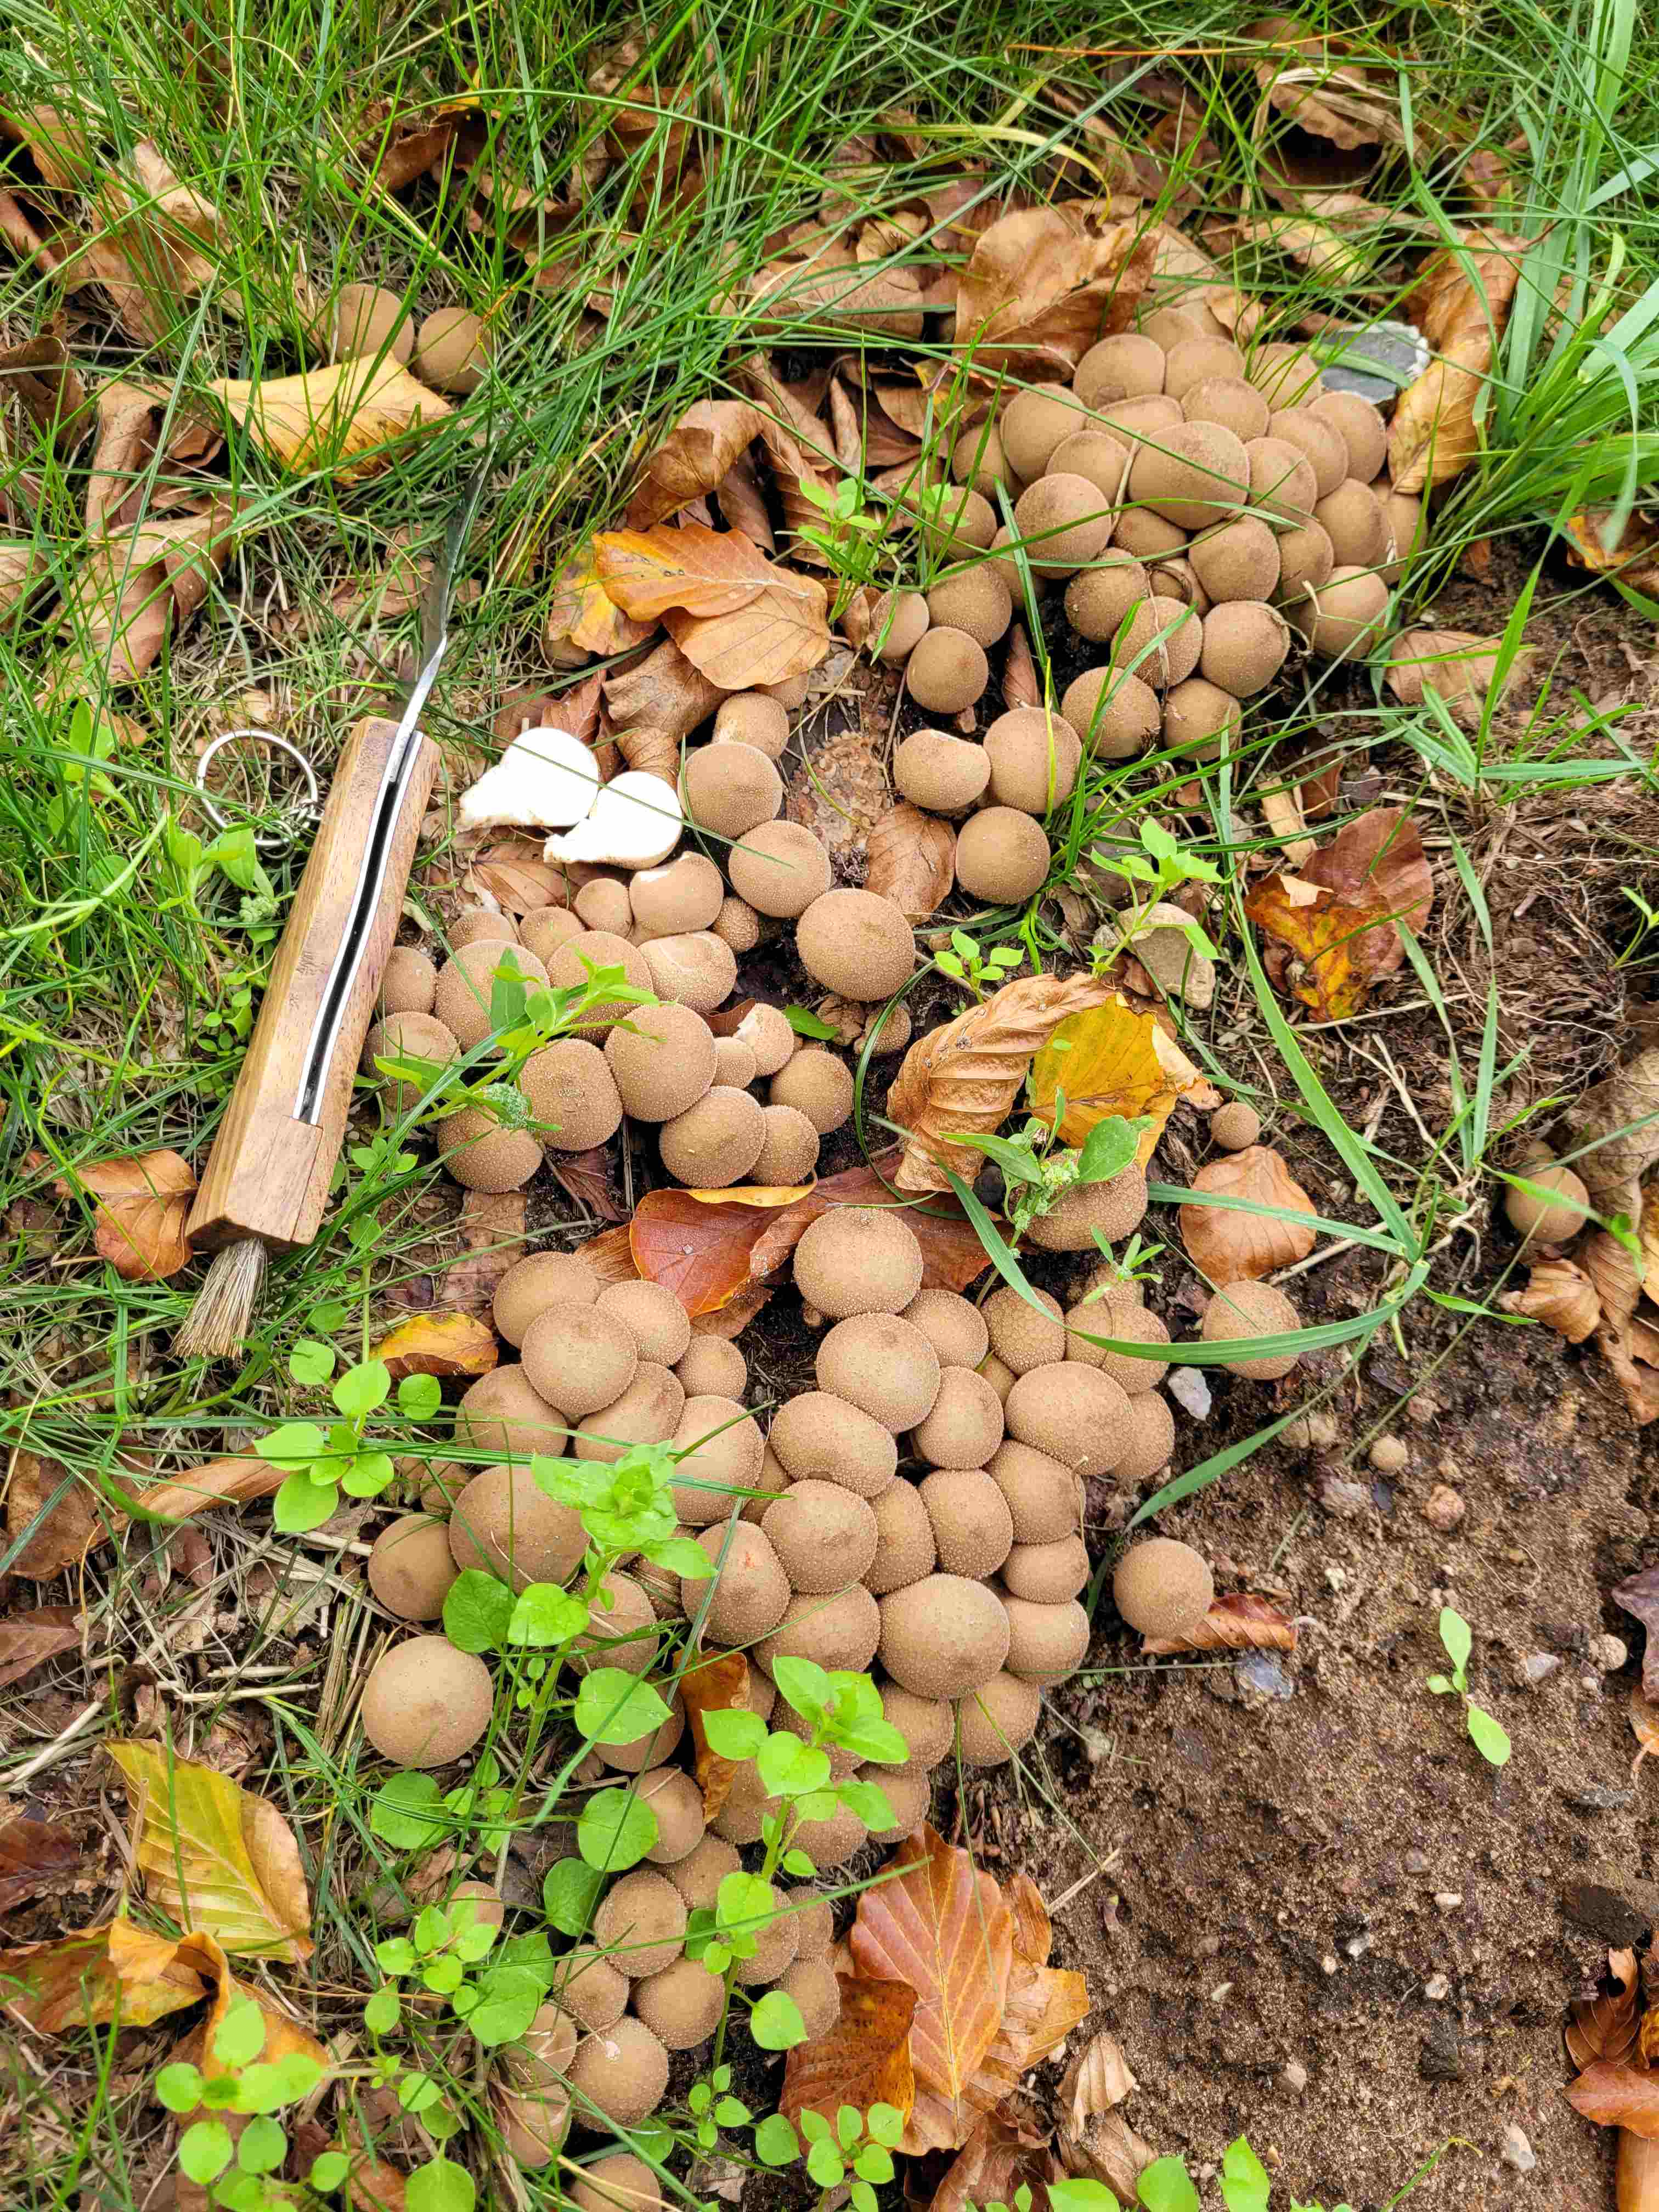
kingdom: Fungi
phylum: Basidiomycota
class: Agaricomycetes
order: Agaricales
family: Lycoperdaceae
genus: Apioperdon
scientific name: Apioperdon pyriforme
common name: pære-støvbold
